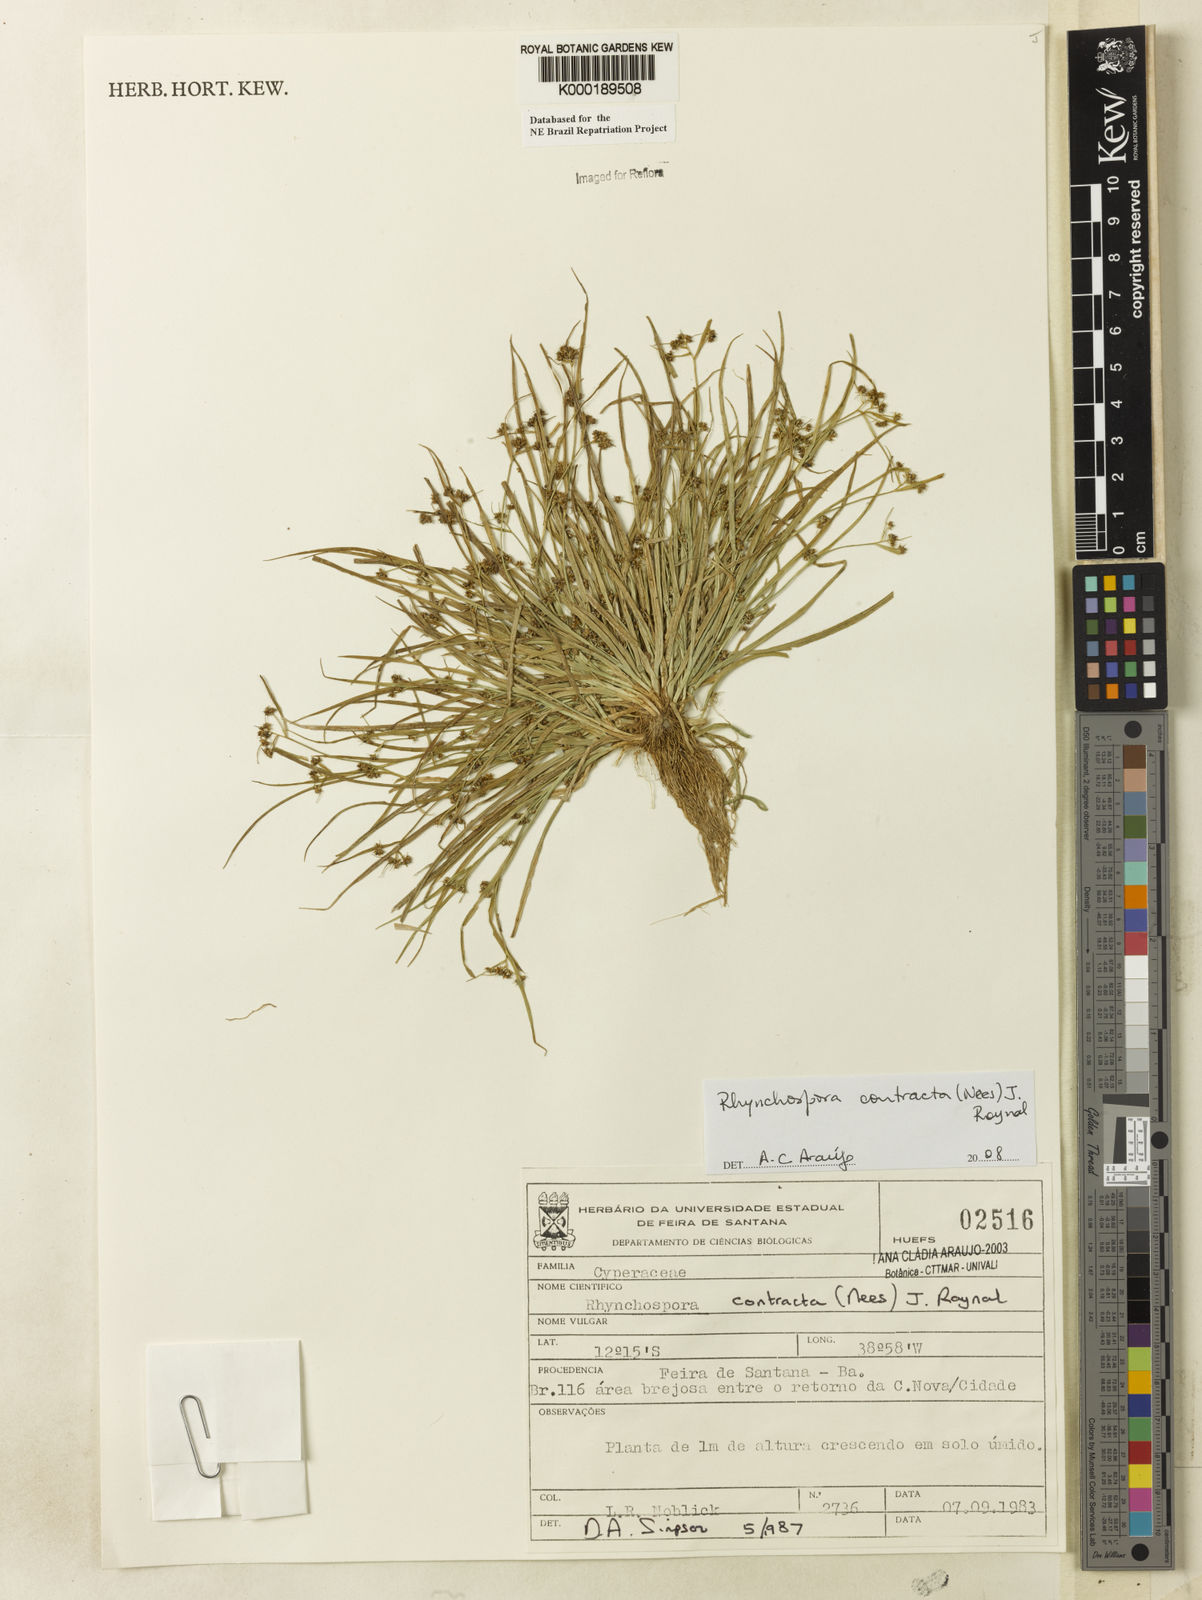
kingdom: Plantae
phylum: Tracheophyta
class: Liliopsida
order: Poales
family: Cyperaceae
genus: Rhynchospora
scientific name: Rhynchospora contracta
